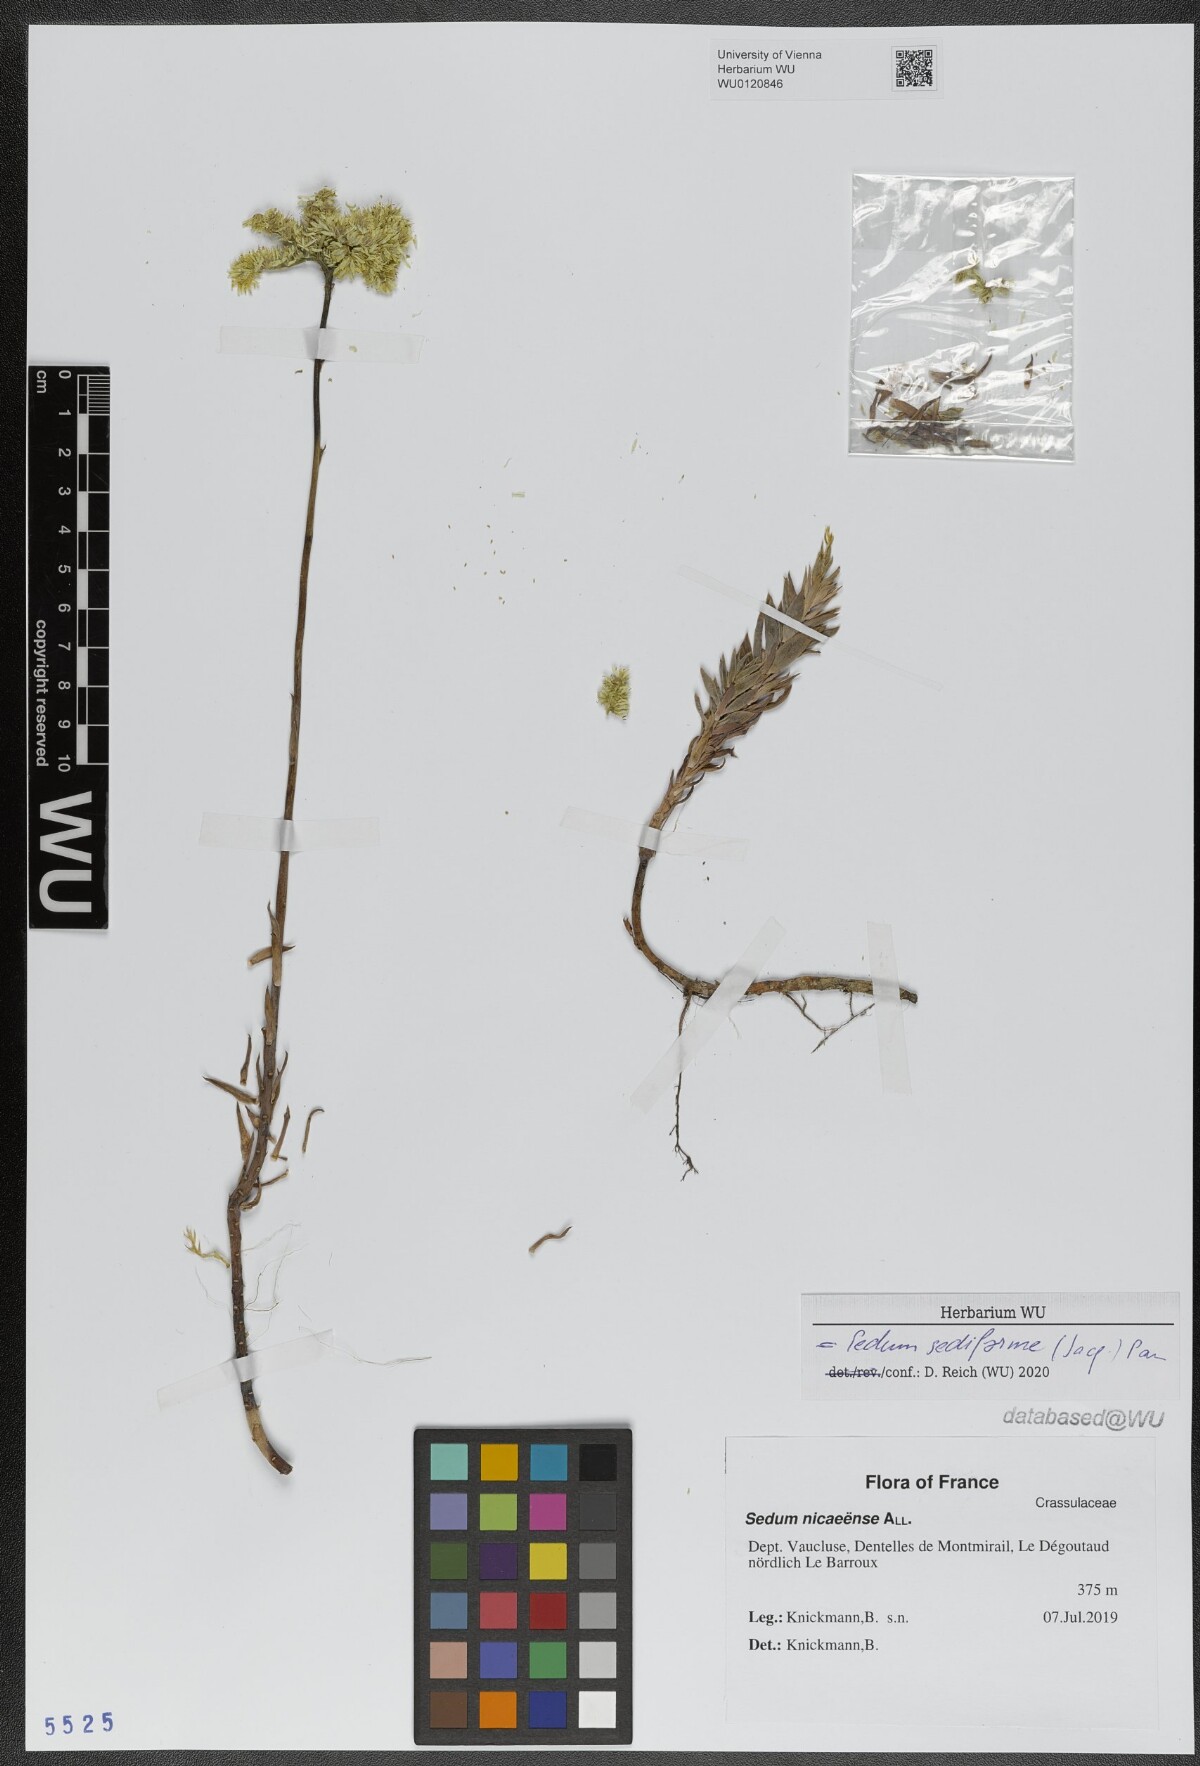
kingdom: Plantae
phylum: Tracheophyta
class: Magnoliopsida
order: Saxifragales
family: Crassulaceae
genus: Petrosedum
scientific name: Petrosedum sediforme
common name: Pale stonecrop
